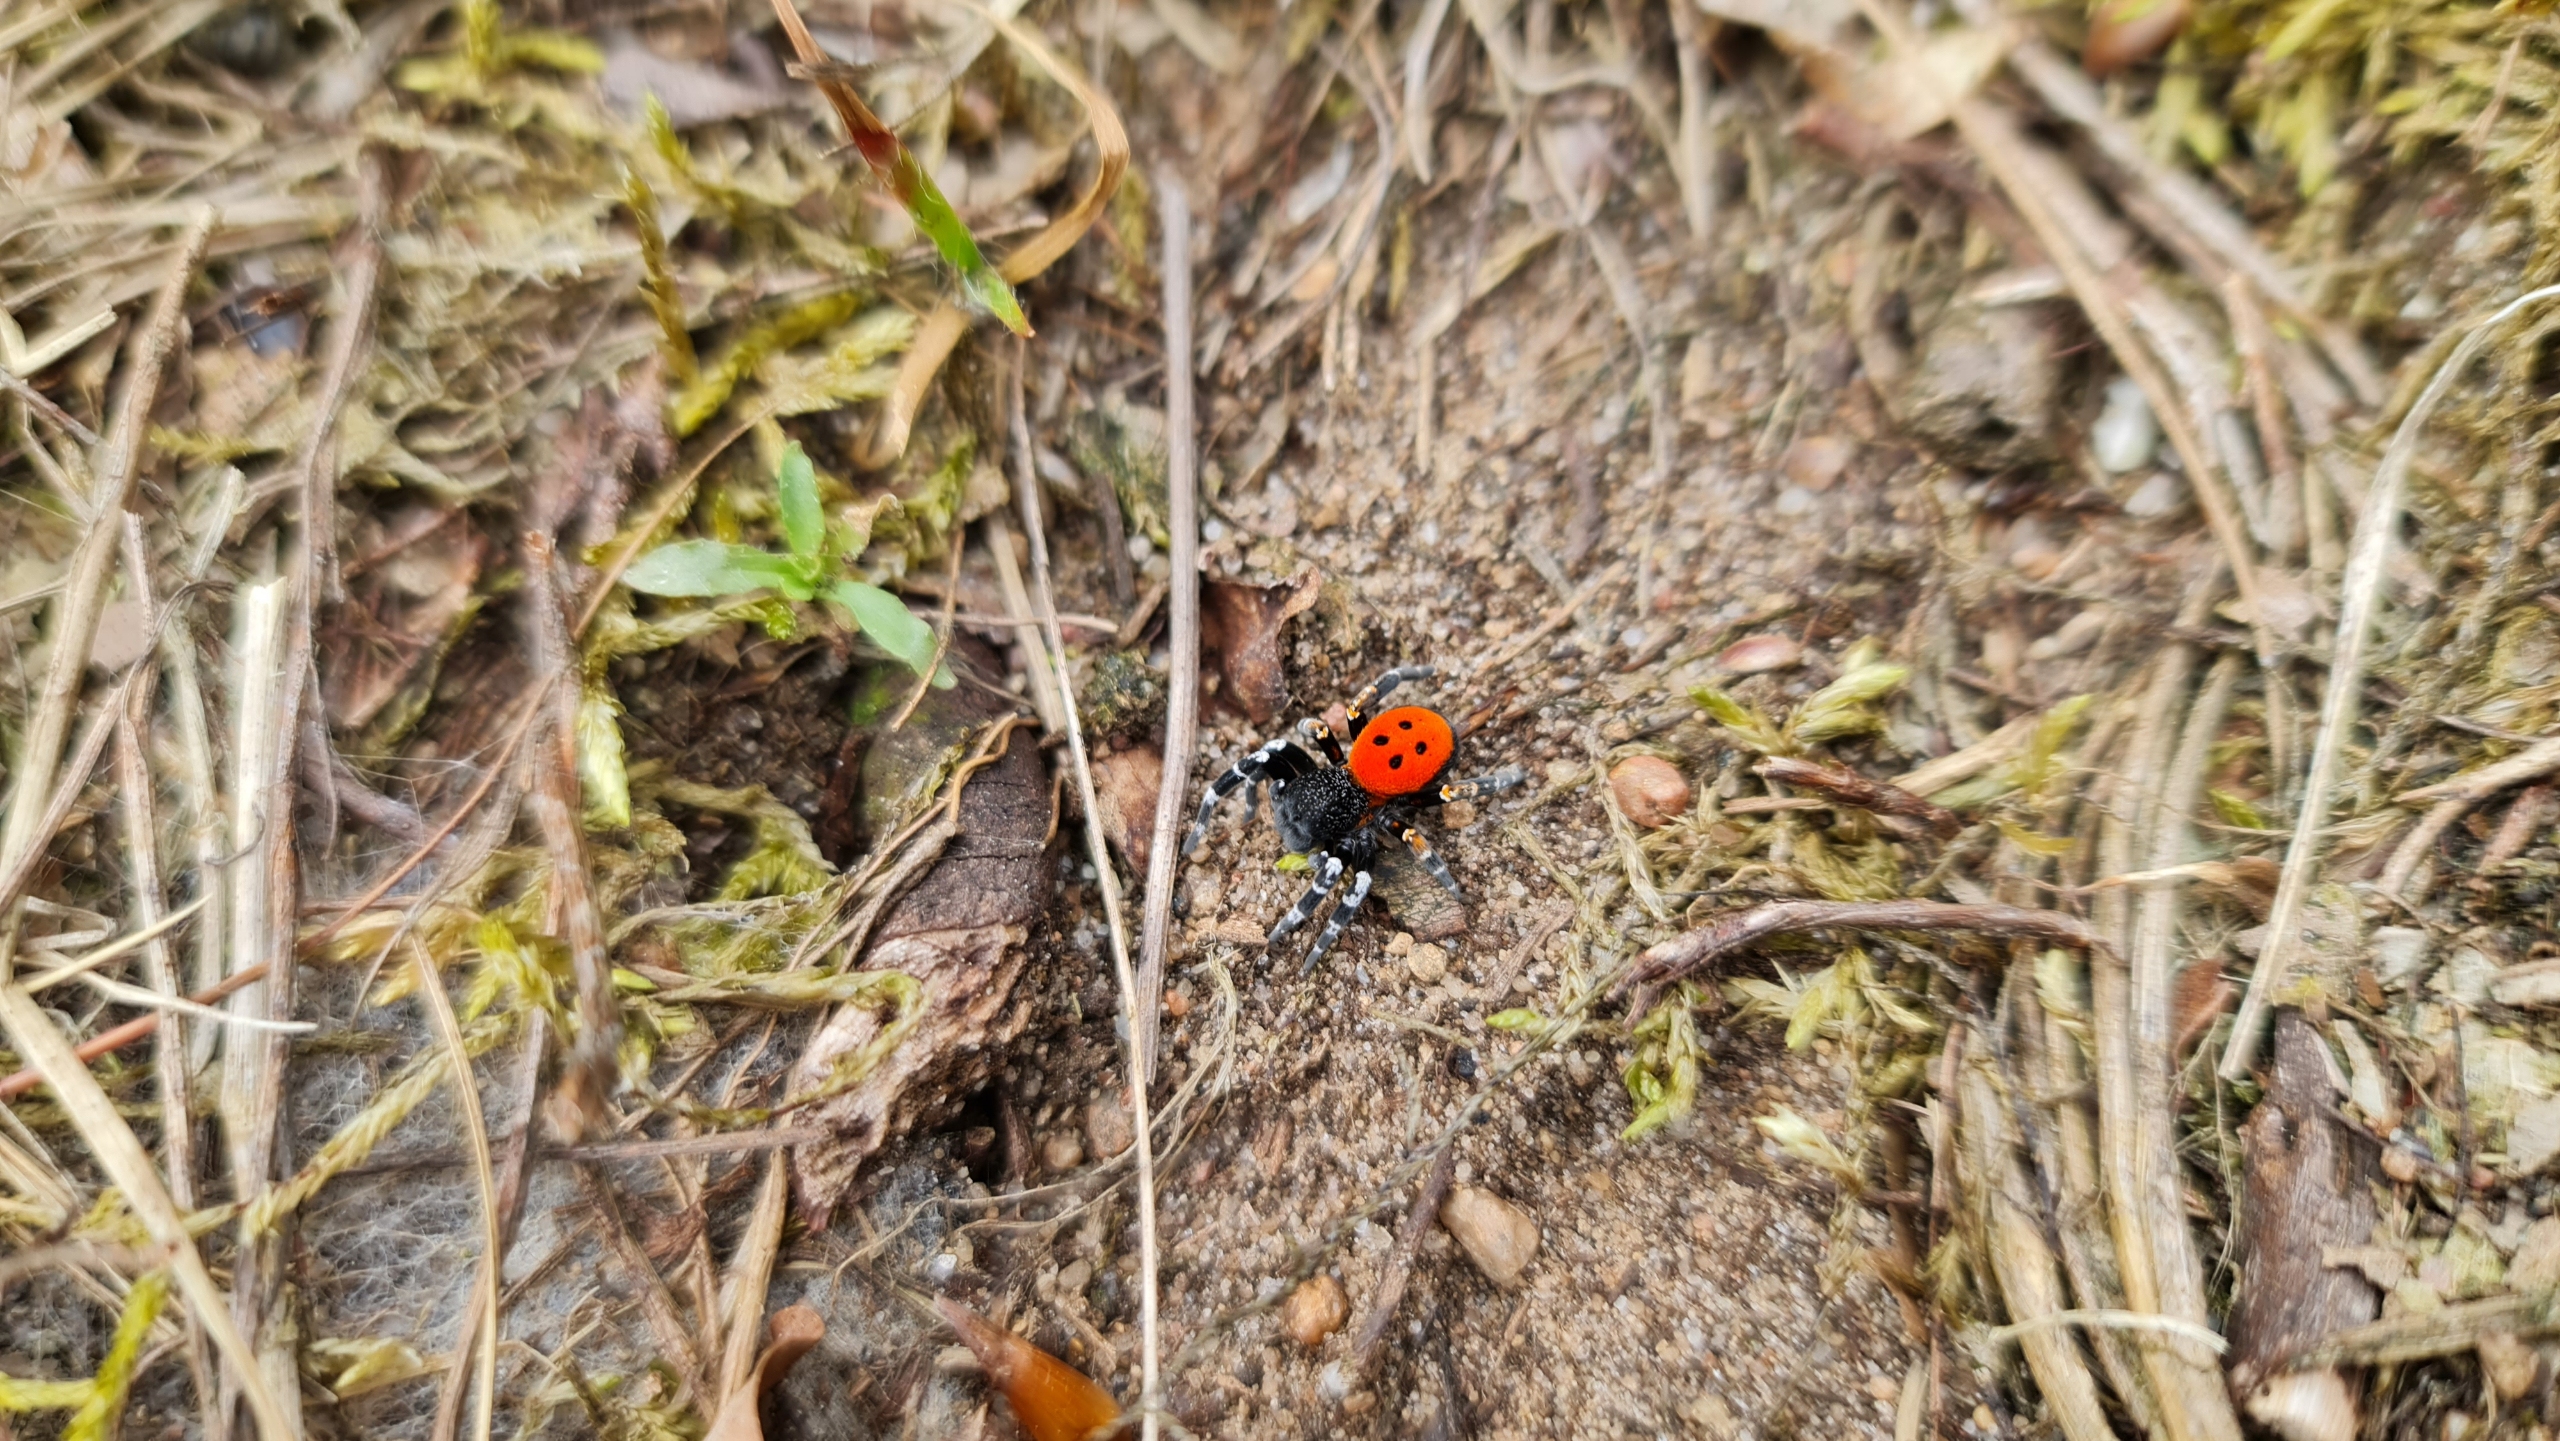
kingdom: Animalia
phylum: Arthropoda
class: Arachnida
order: Araneae
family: Eresidae
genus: Eresus
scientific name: Eresus sandaliatus
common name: Mariehøneedderkop
